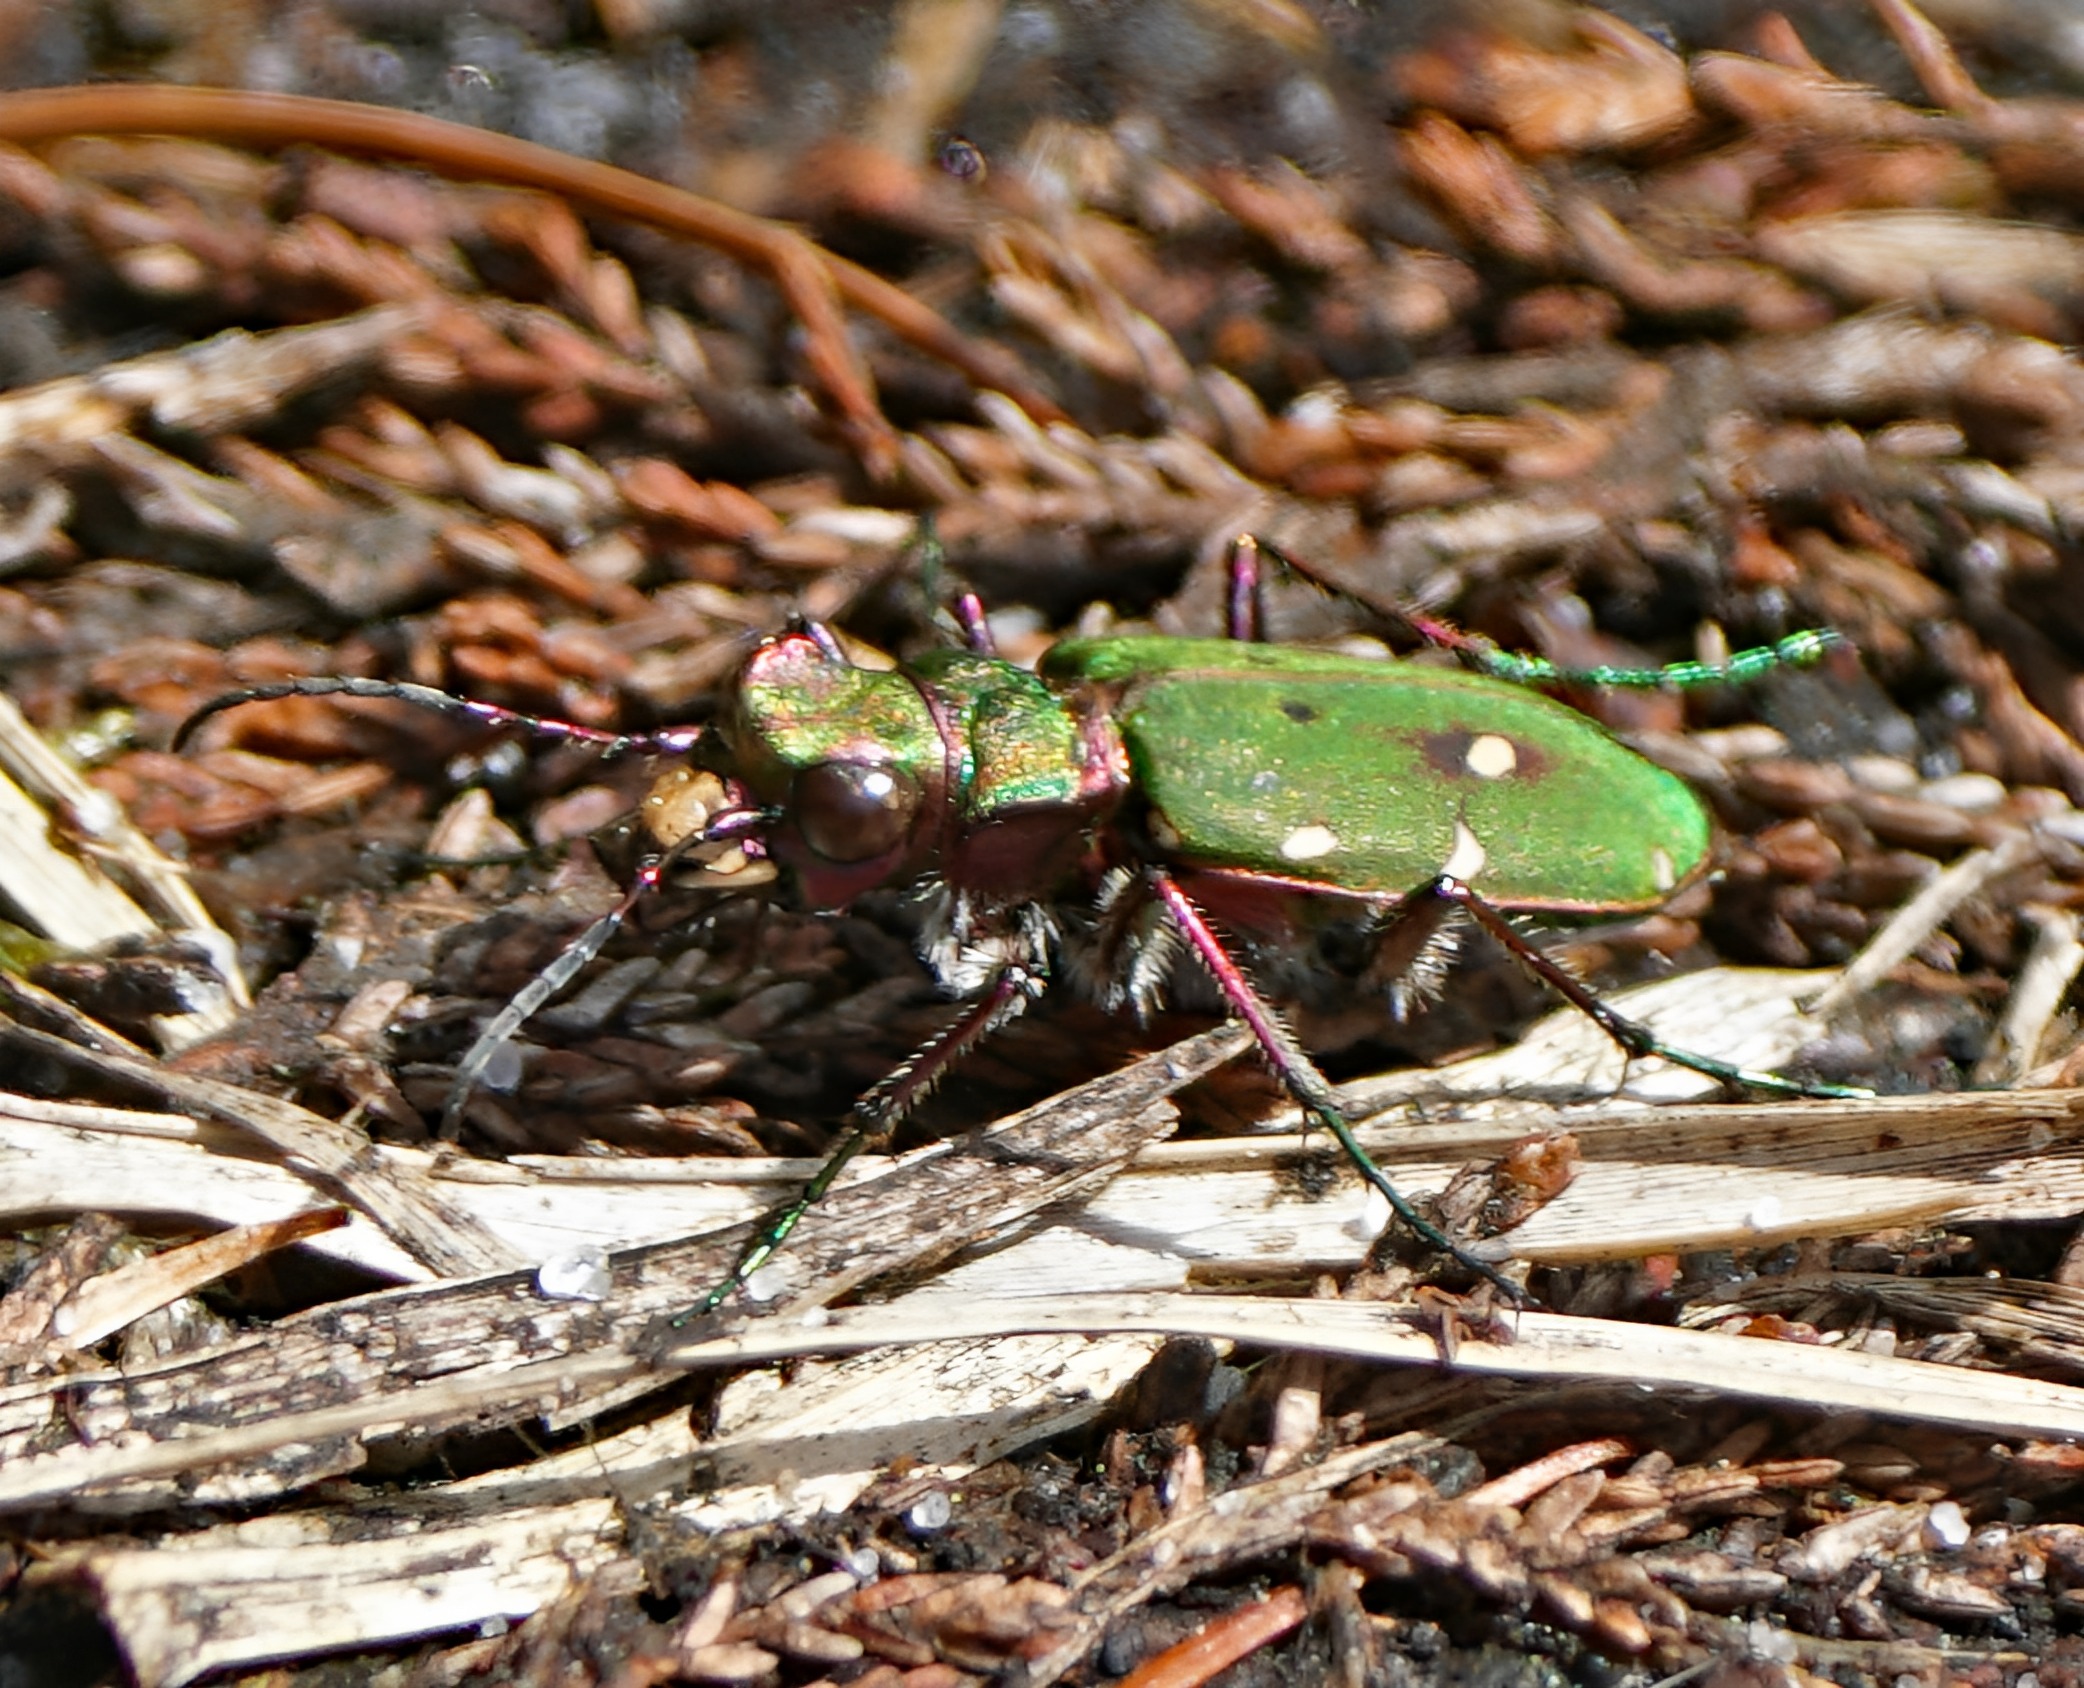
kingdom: Animalia
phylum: Arthropoda
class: Insecta
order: Coleoptera
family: Carabidae
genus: Cicindela
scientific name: Cicindela campestris
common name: Grøn sandspringer
